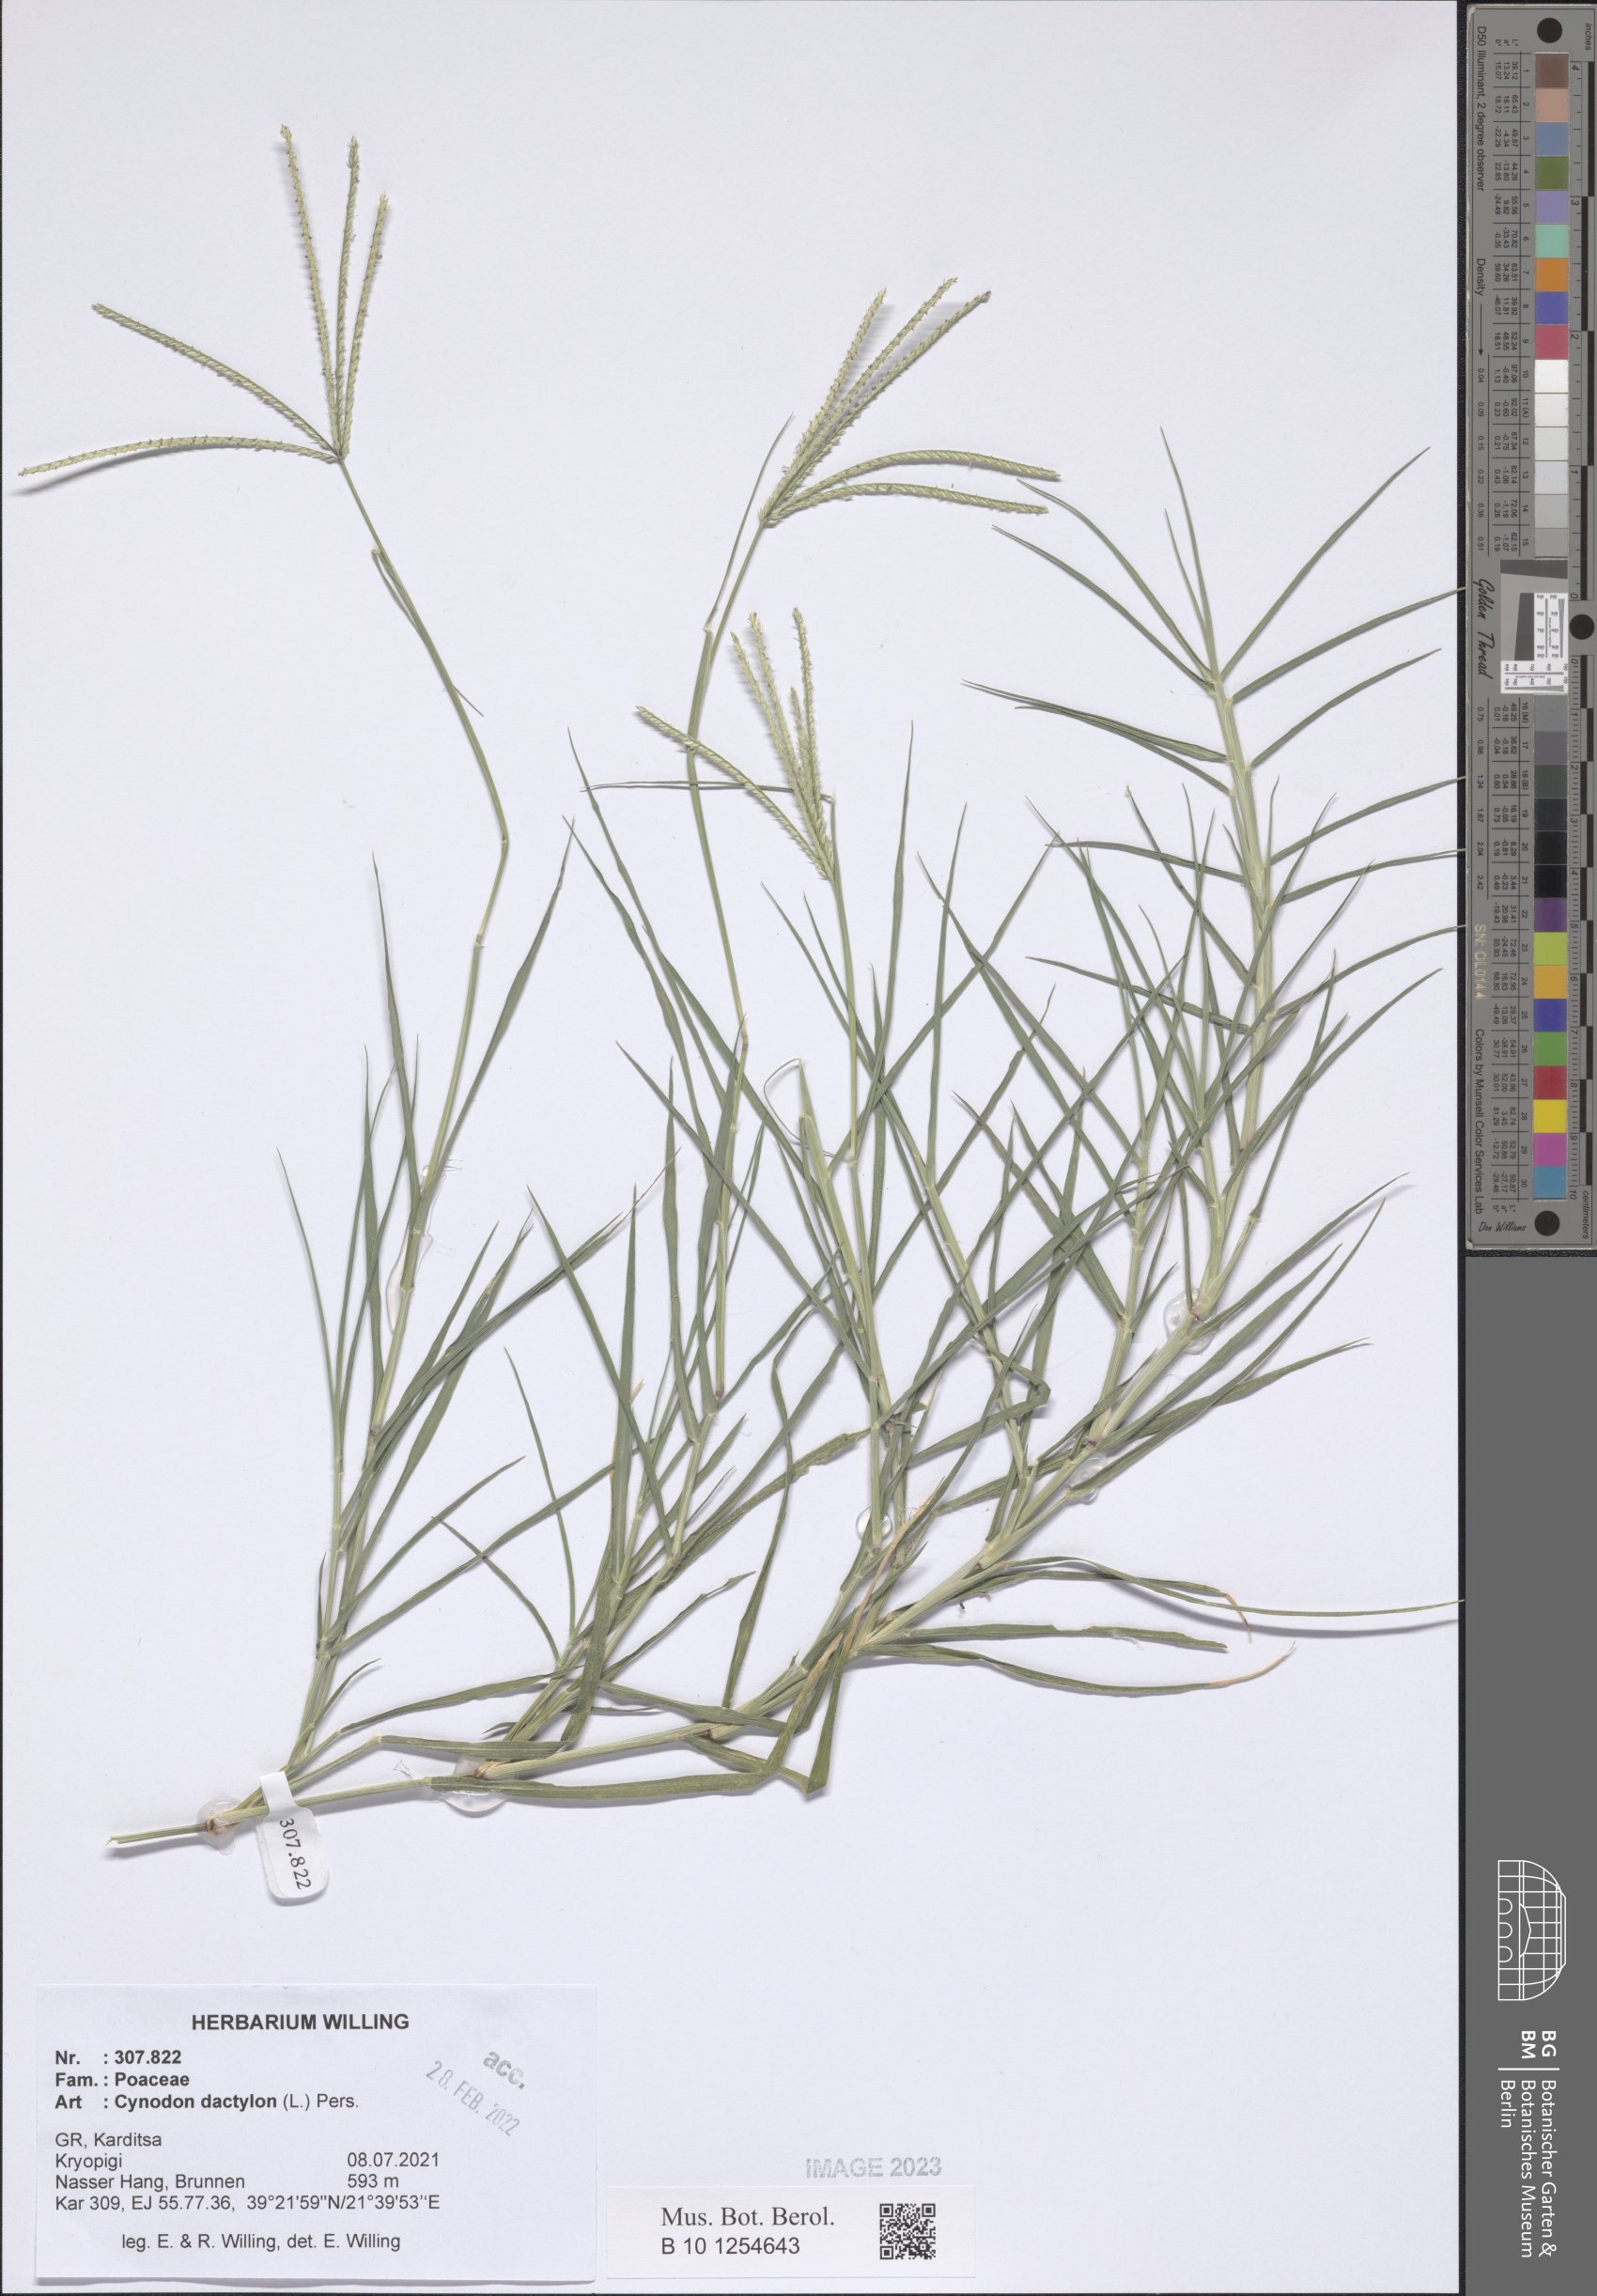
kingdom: Plantae
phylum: Tracheophyta
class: Liliopsida
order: Poales
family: Poaceae
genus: Cynodon
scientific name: Cynodon dactylon
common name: Bermuda grass
